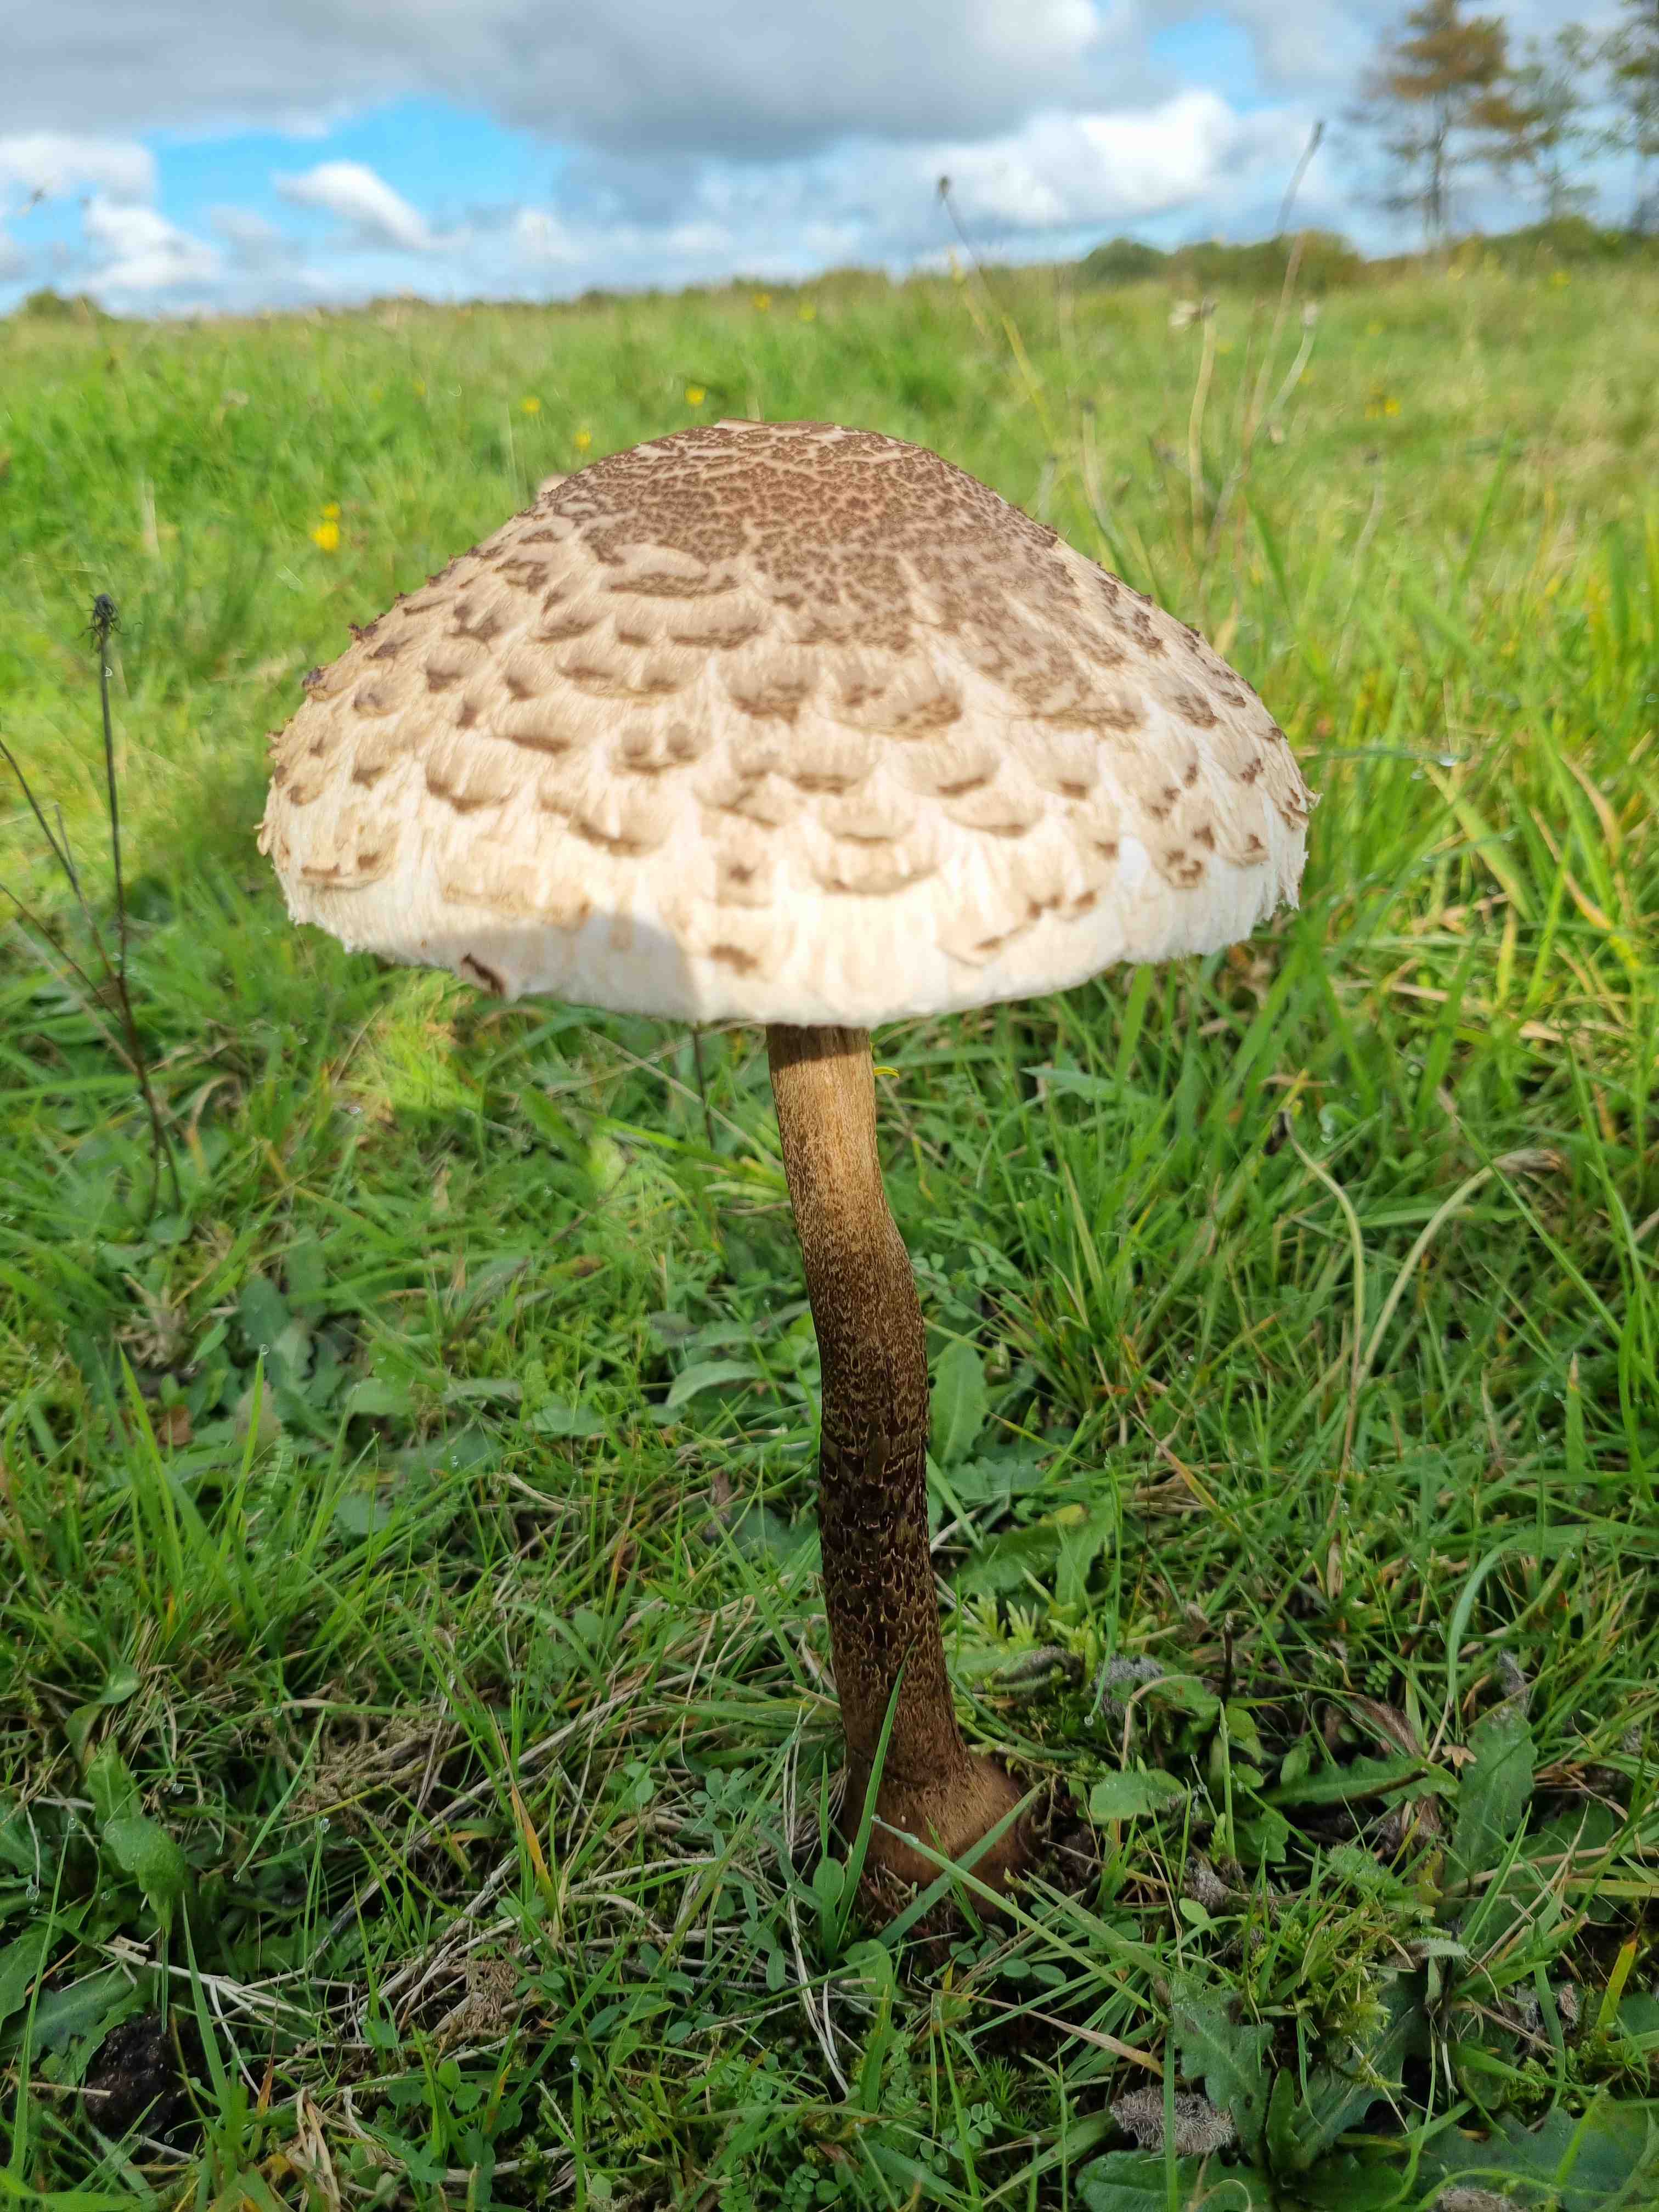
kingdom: Fungi
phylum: Basidiomycota
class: Agaricomycetes
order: Agaricales
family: Agaricaceae
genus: Macrolepiota
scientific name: Macrolepiota procera
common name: stor kæmpeparasolhat
